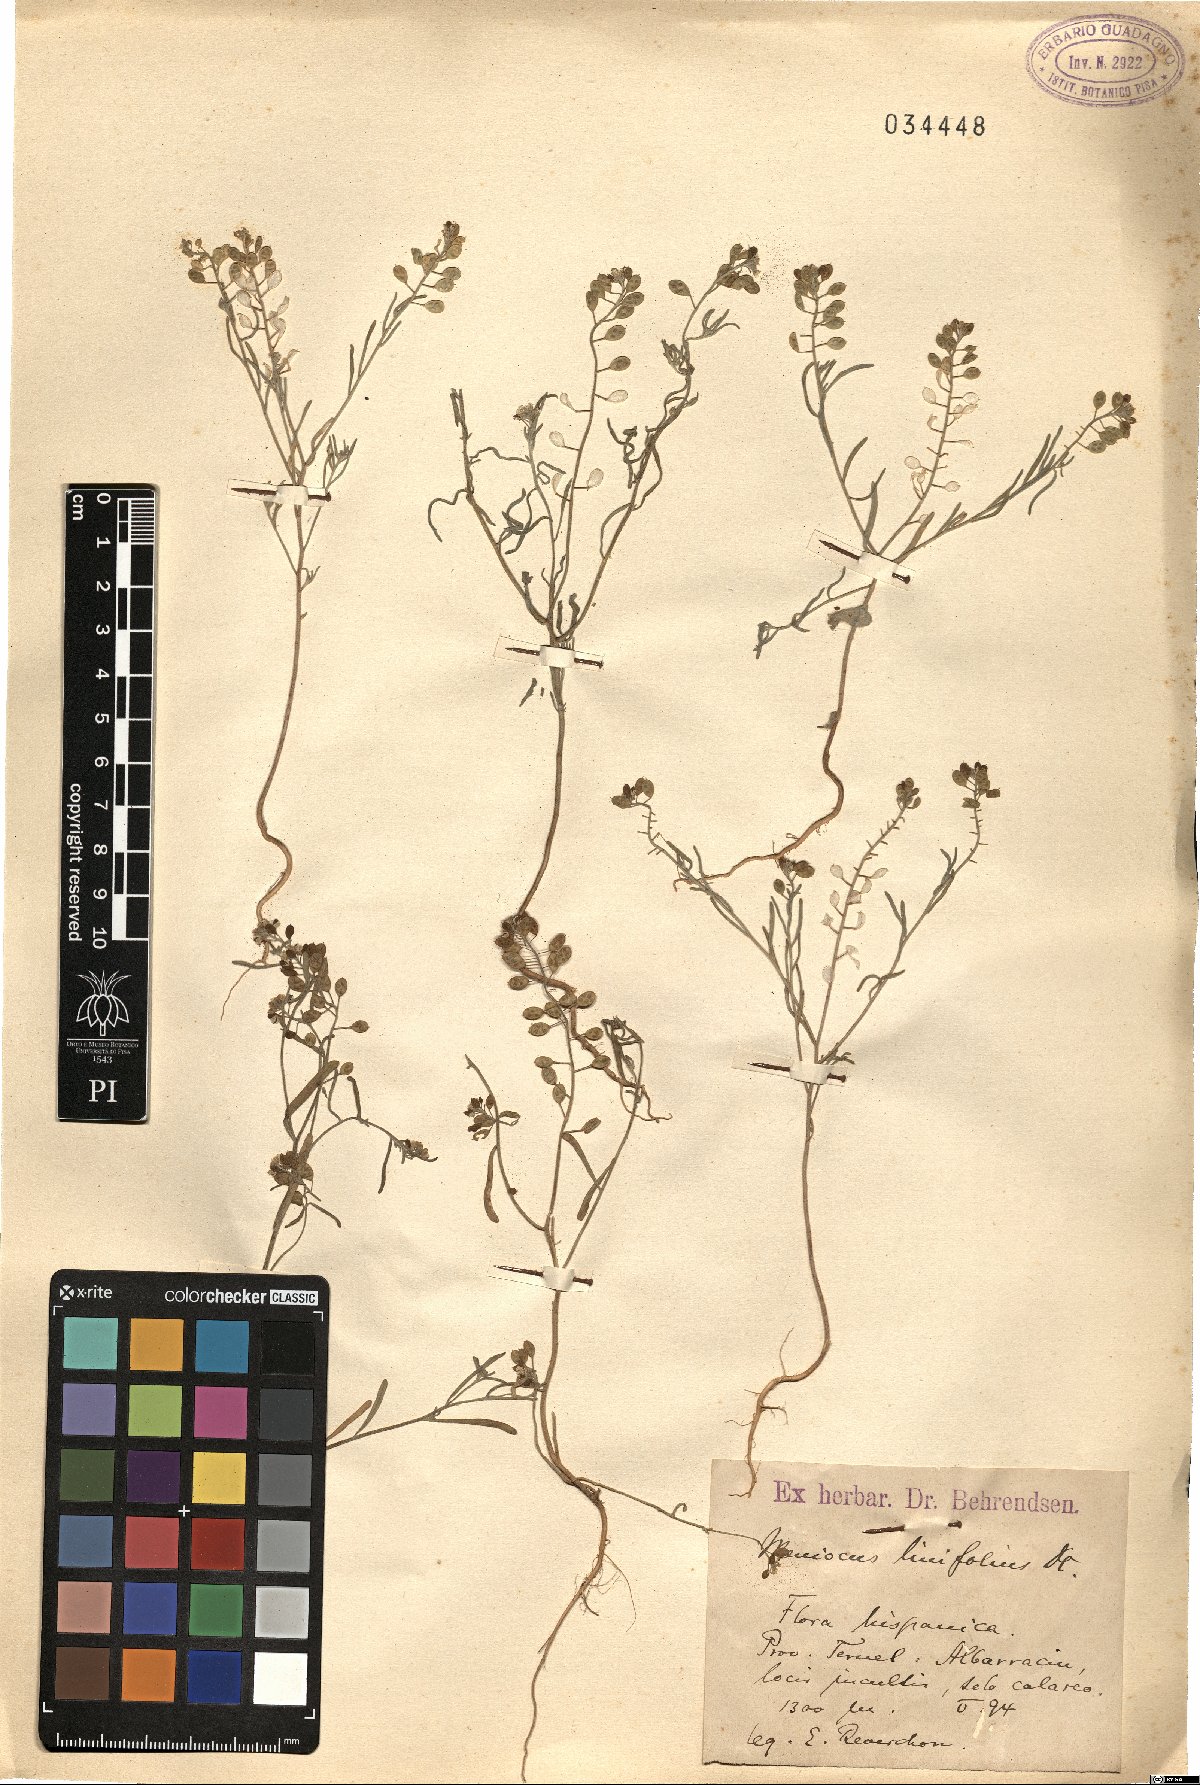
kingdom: Plantae
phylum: Tracheophyta
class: Magnoliopsida
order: Brassicales
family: Brassicaceae
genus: Meniocus
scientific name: Meniocus linifolius
